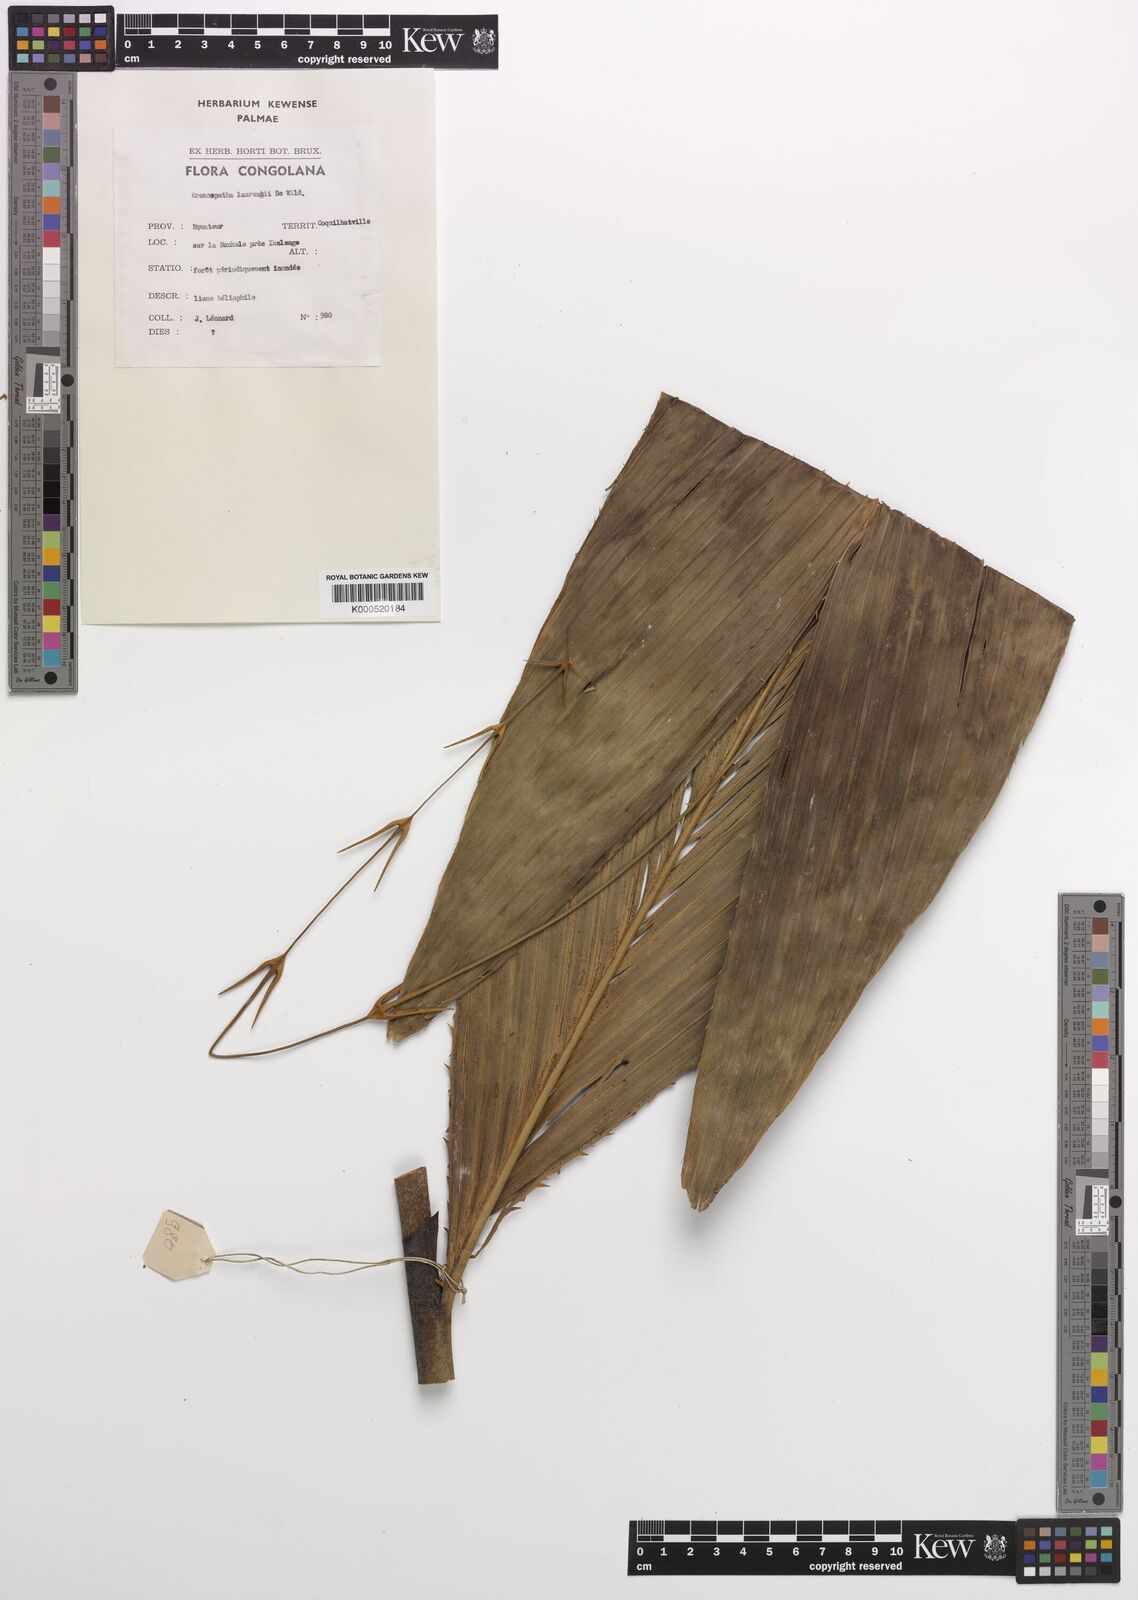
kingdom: Plantae
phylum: Tracheophyta
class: Liliopsida
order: Arecales
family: Arecaceae
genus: Eremospatha
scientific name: Eremospatha laurentii
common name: Rattan palm
